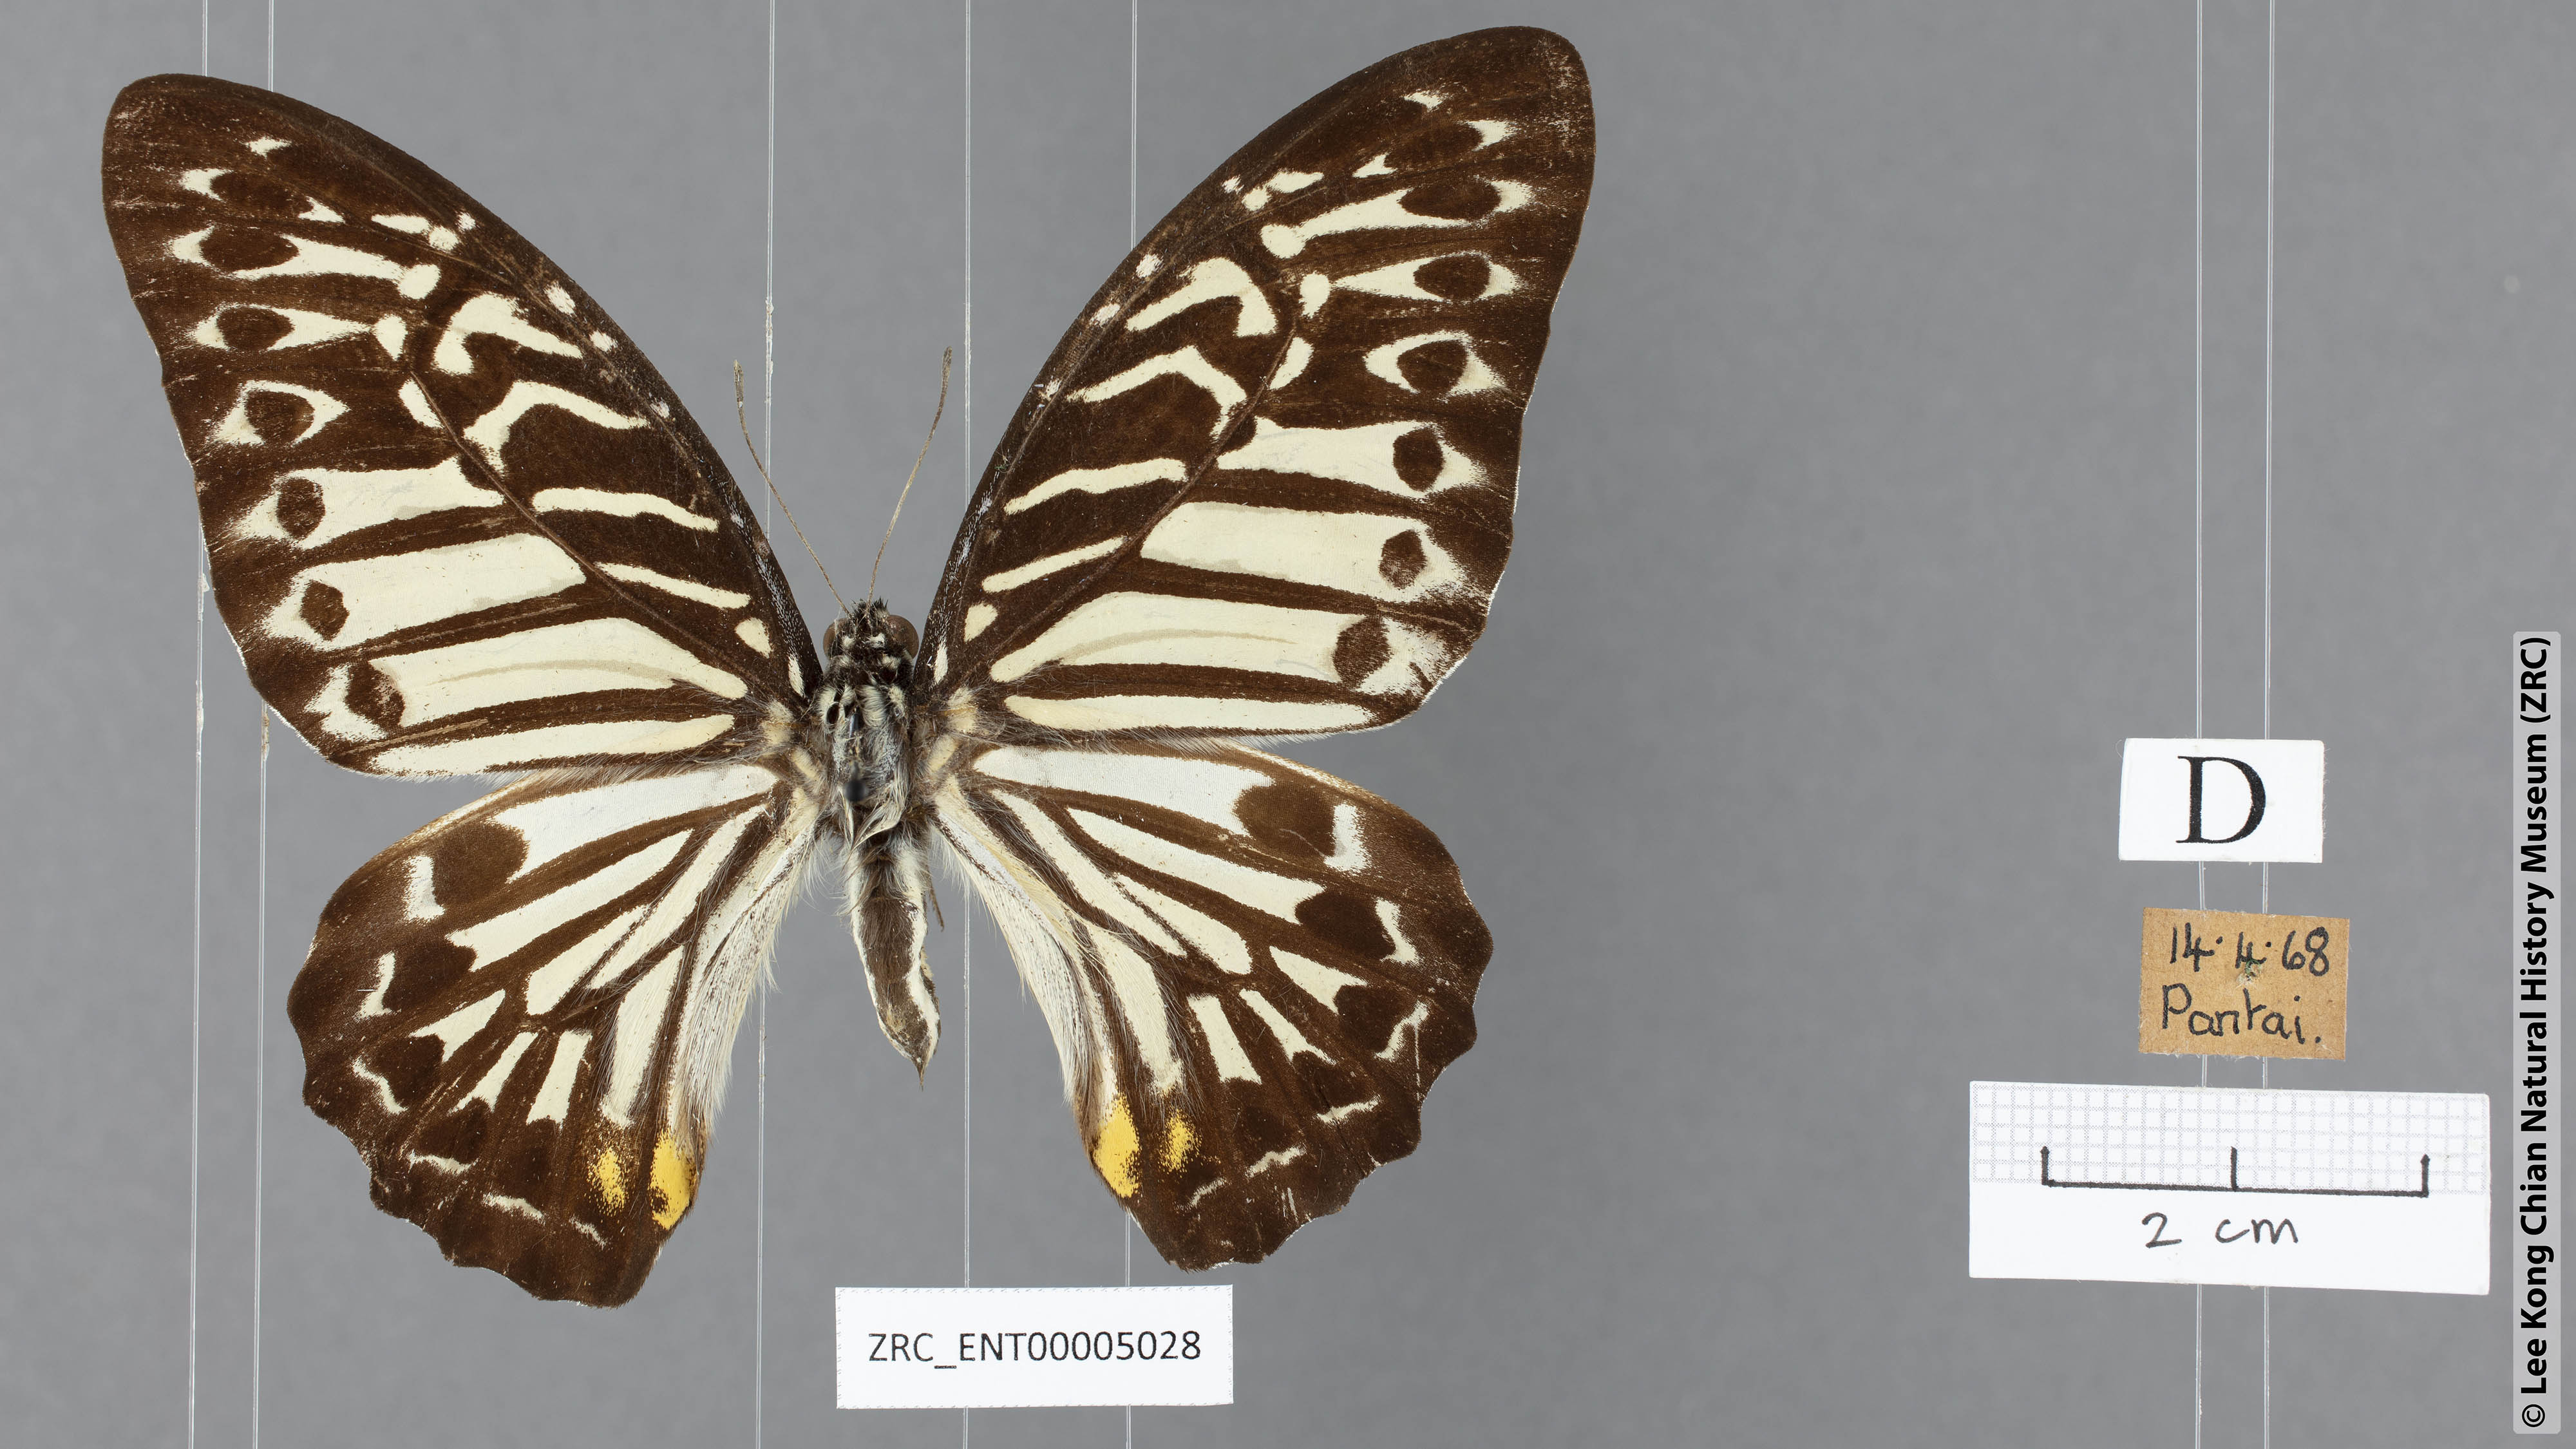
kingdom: Animalia
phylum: Arthropoda
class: Insecta
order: Lepidoptera
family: Papilionidae
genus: Graphium
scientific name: Graphium delesserti
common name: Malayan zebra
